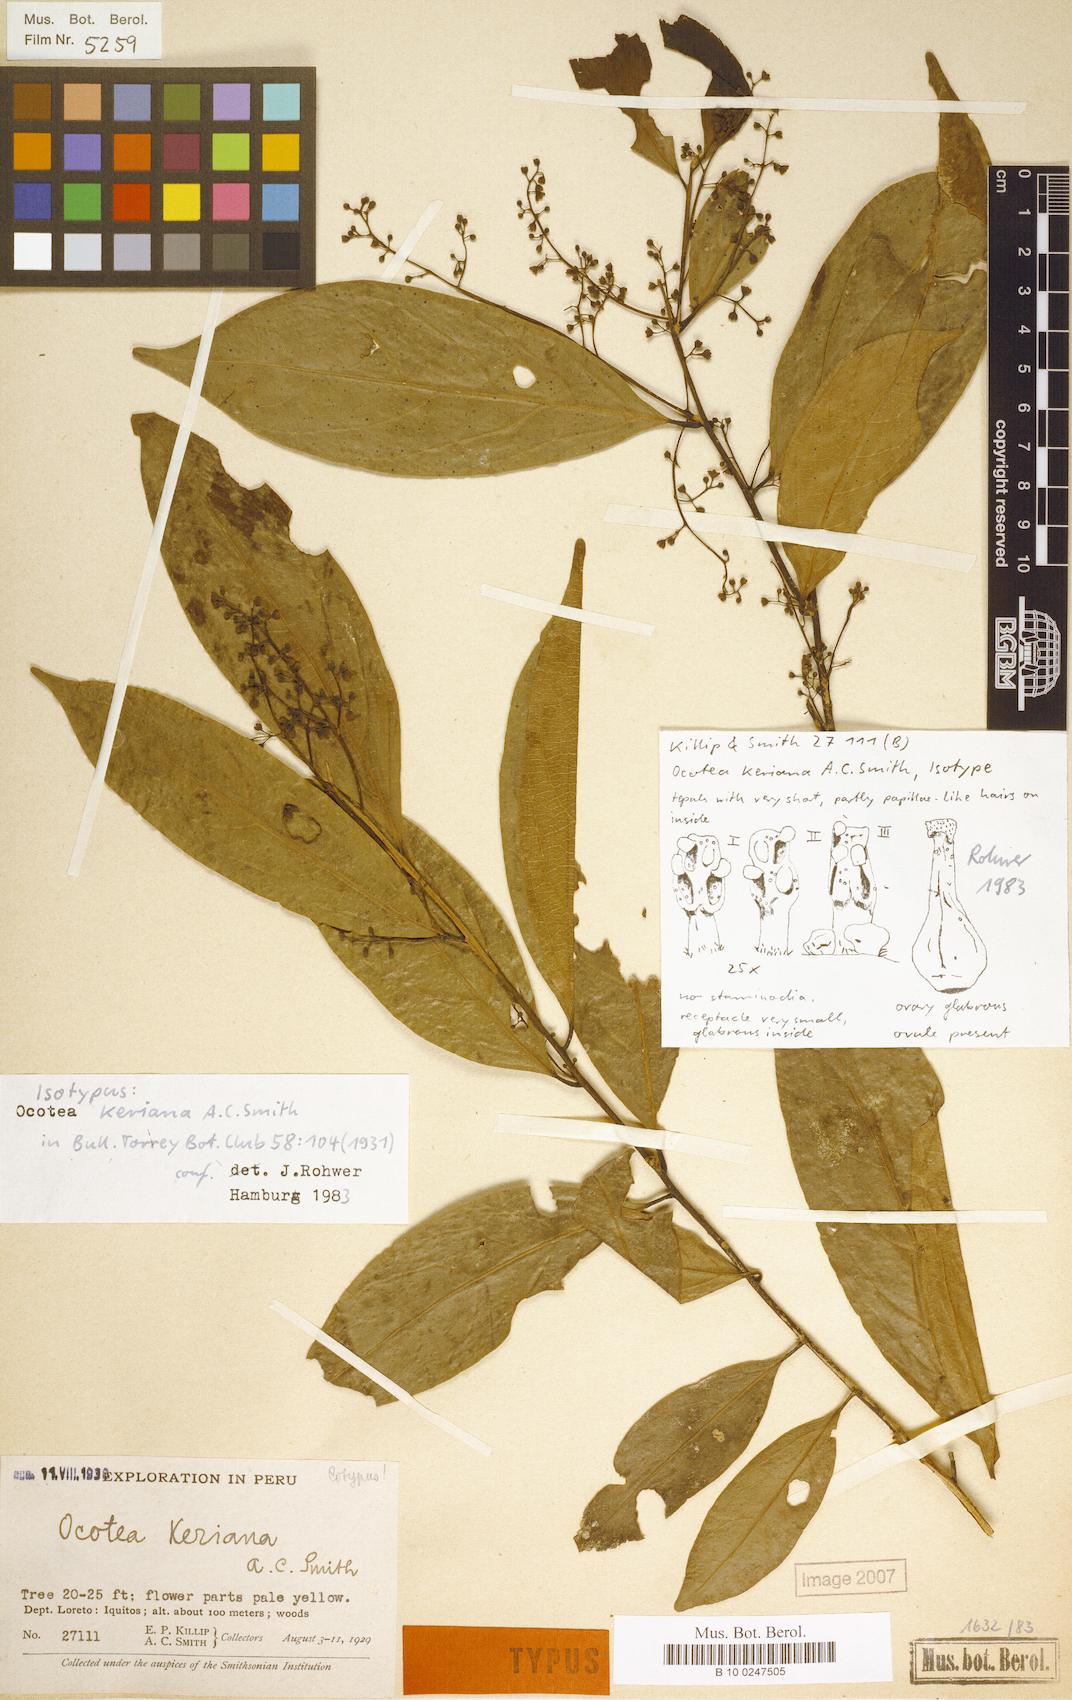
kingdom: Plantae
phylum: Tracheophyta
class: Magnoliopsida
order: Laurales
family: Lauraceae
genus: Ocotea
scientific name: Ocotea keriana
